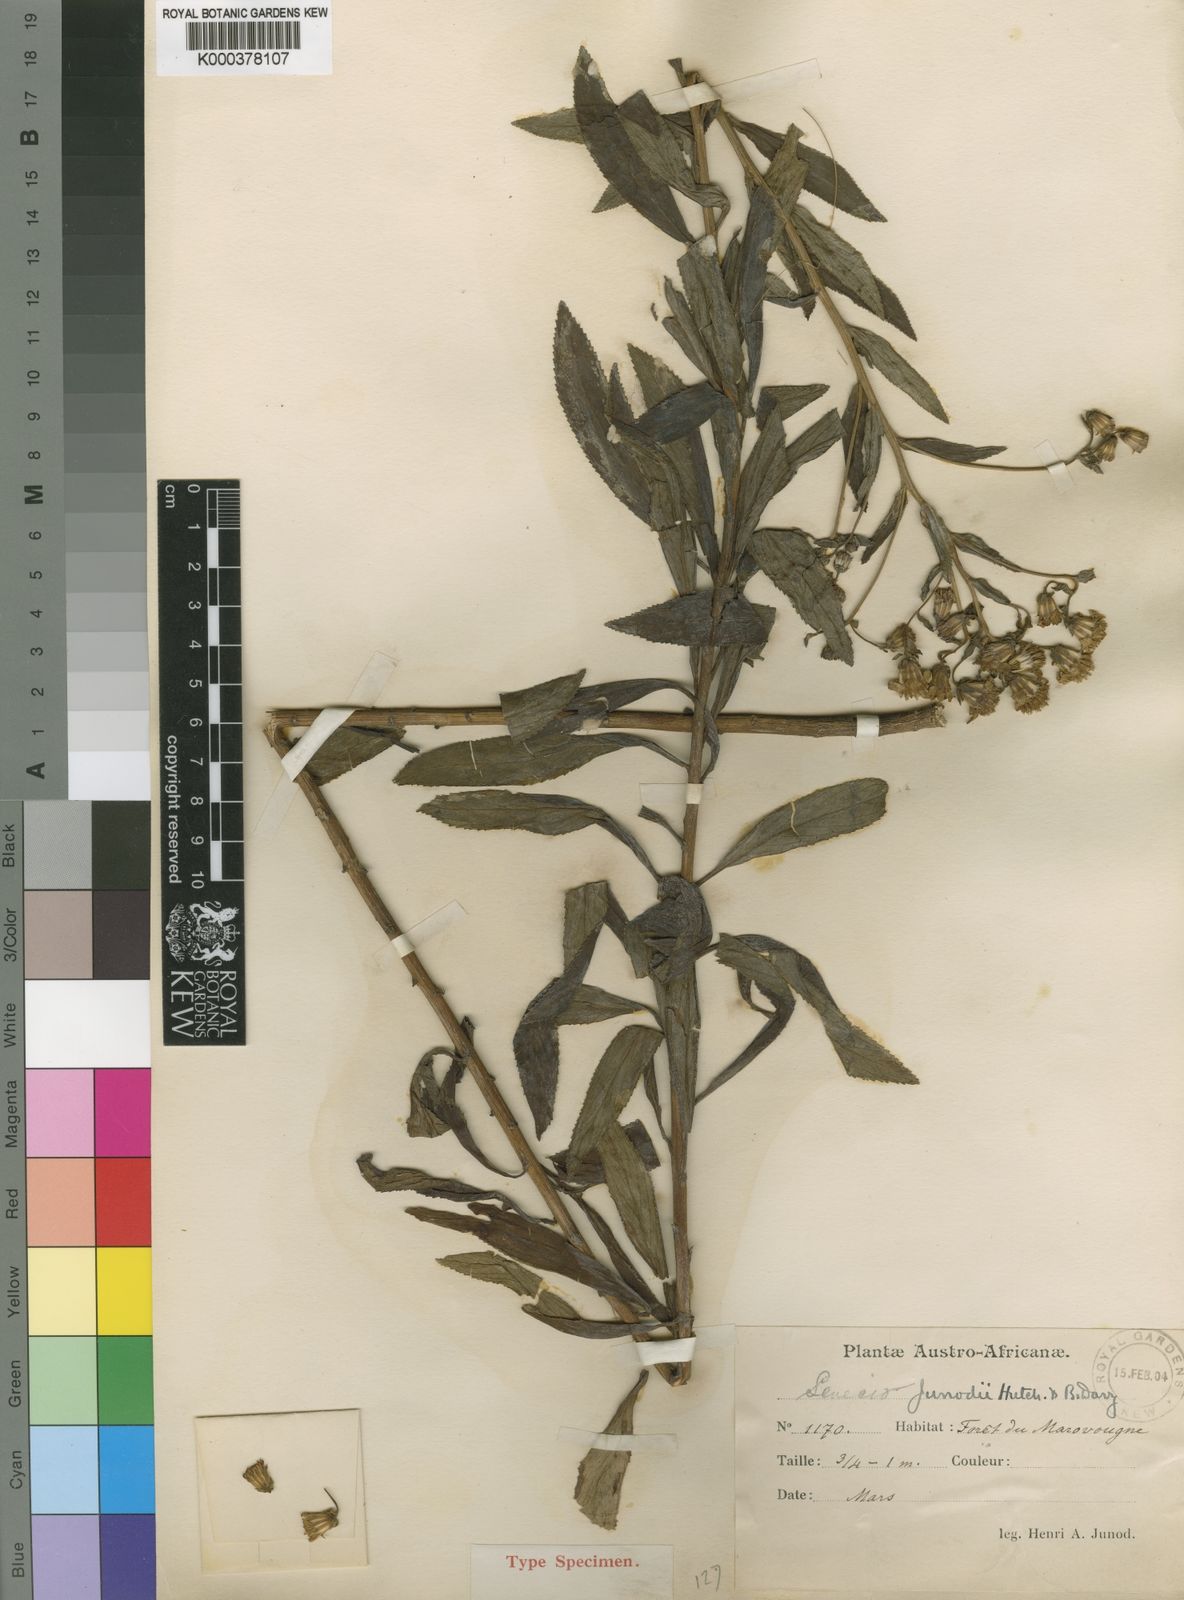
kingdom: Plantae
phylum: Tracheophyta
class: Magnoliopsida
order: Asterales
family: Asteraceae
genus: Senecio
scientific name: Senecio junodii
